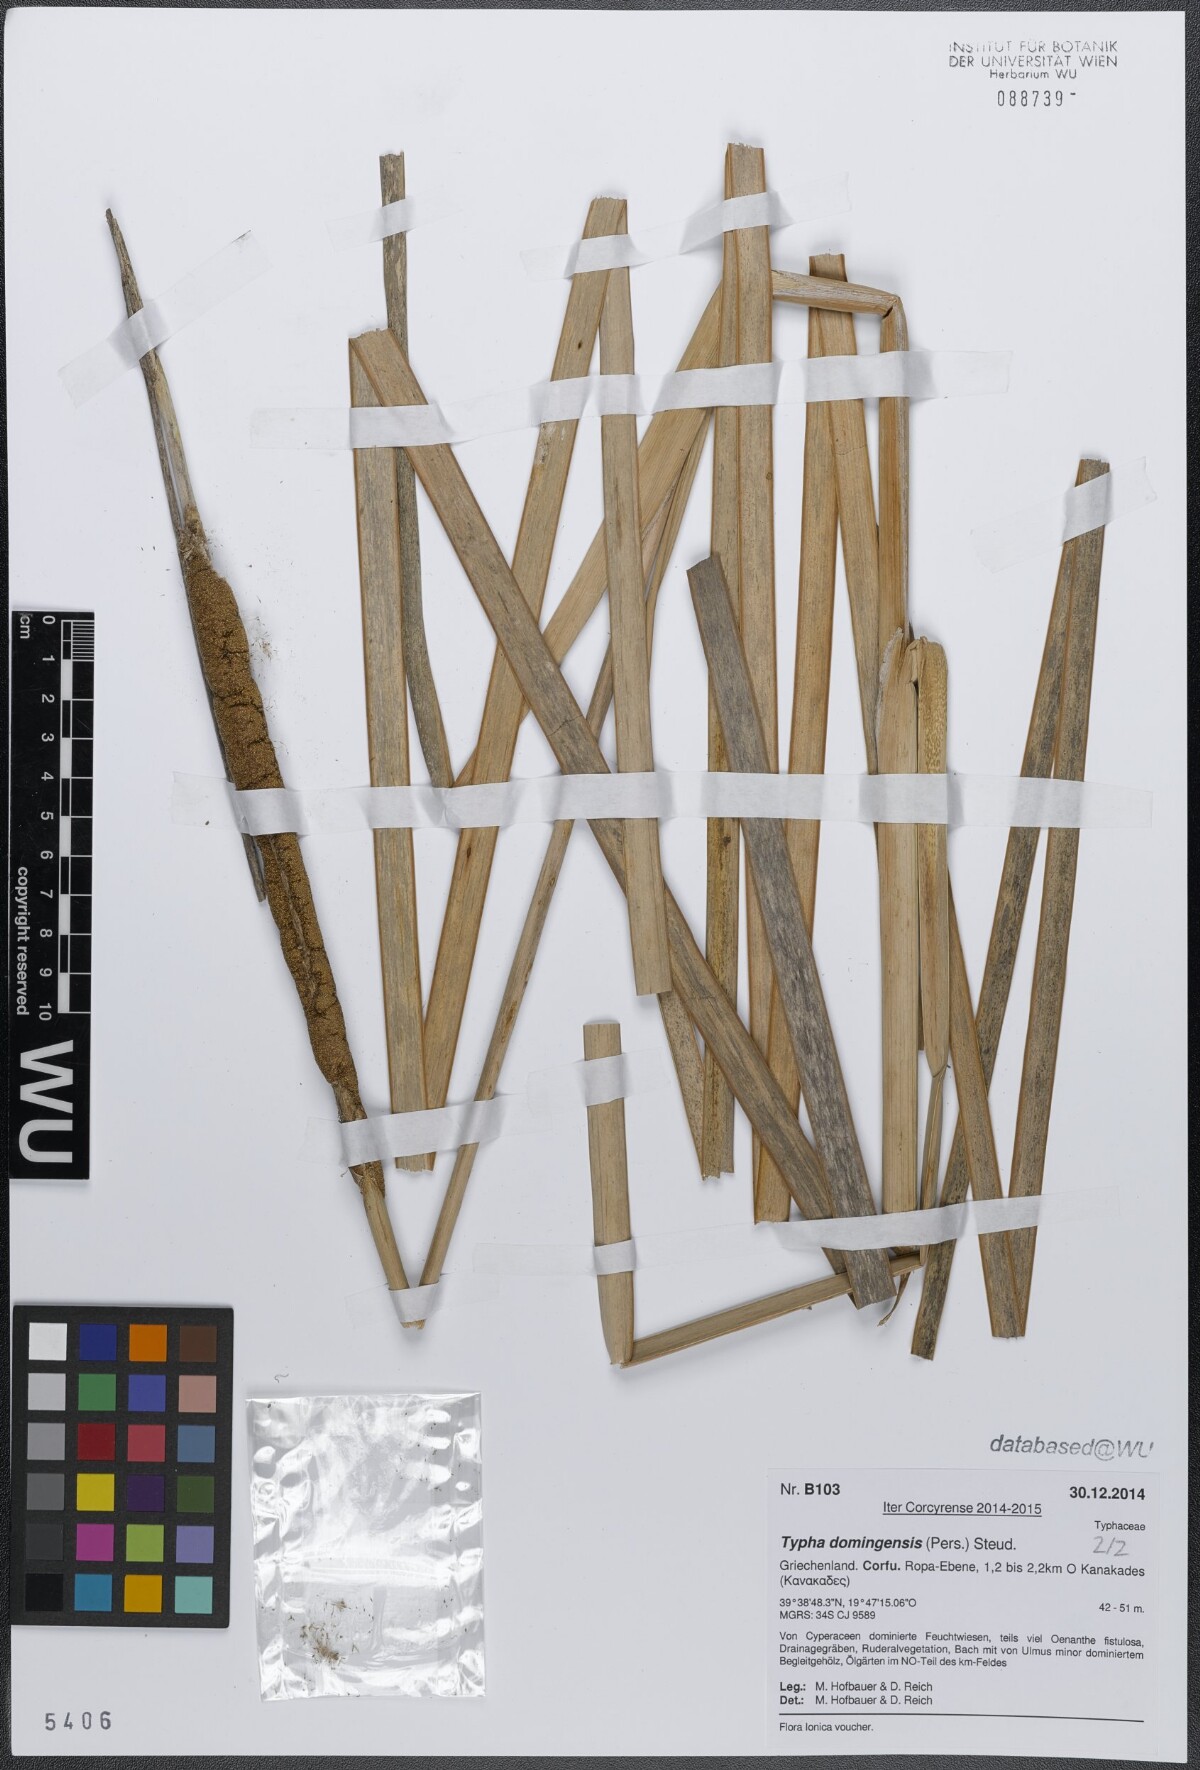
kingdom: Plantae
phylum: Tracheophyta
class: Liliopsida
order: Poales
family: Typhaceae
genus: Typha
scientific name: Typha domingensis
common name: Southern cattail
